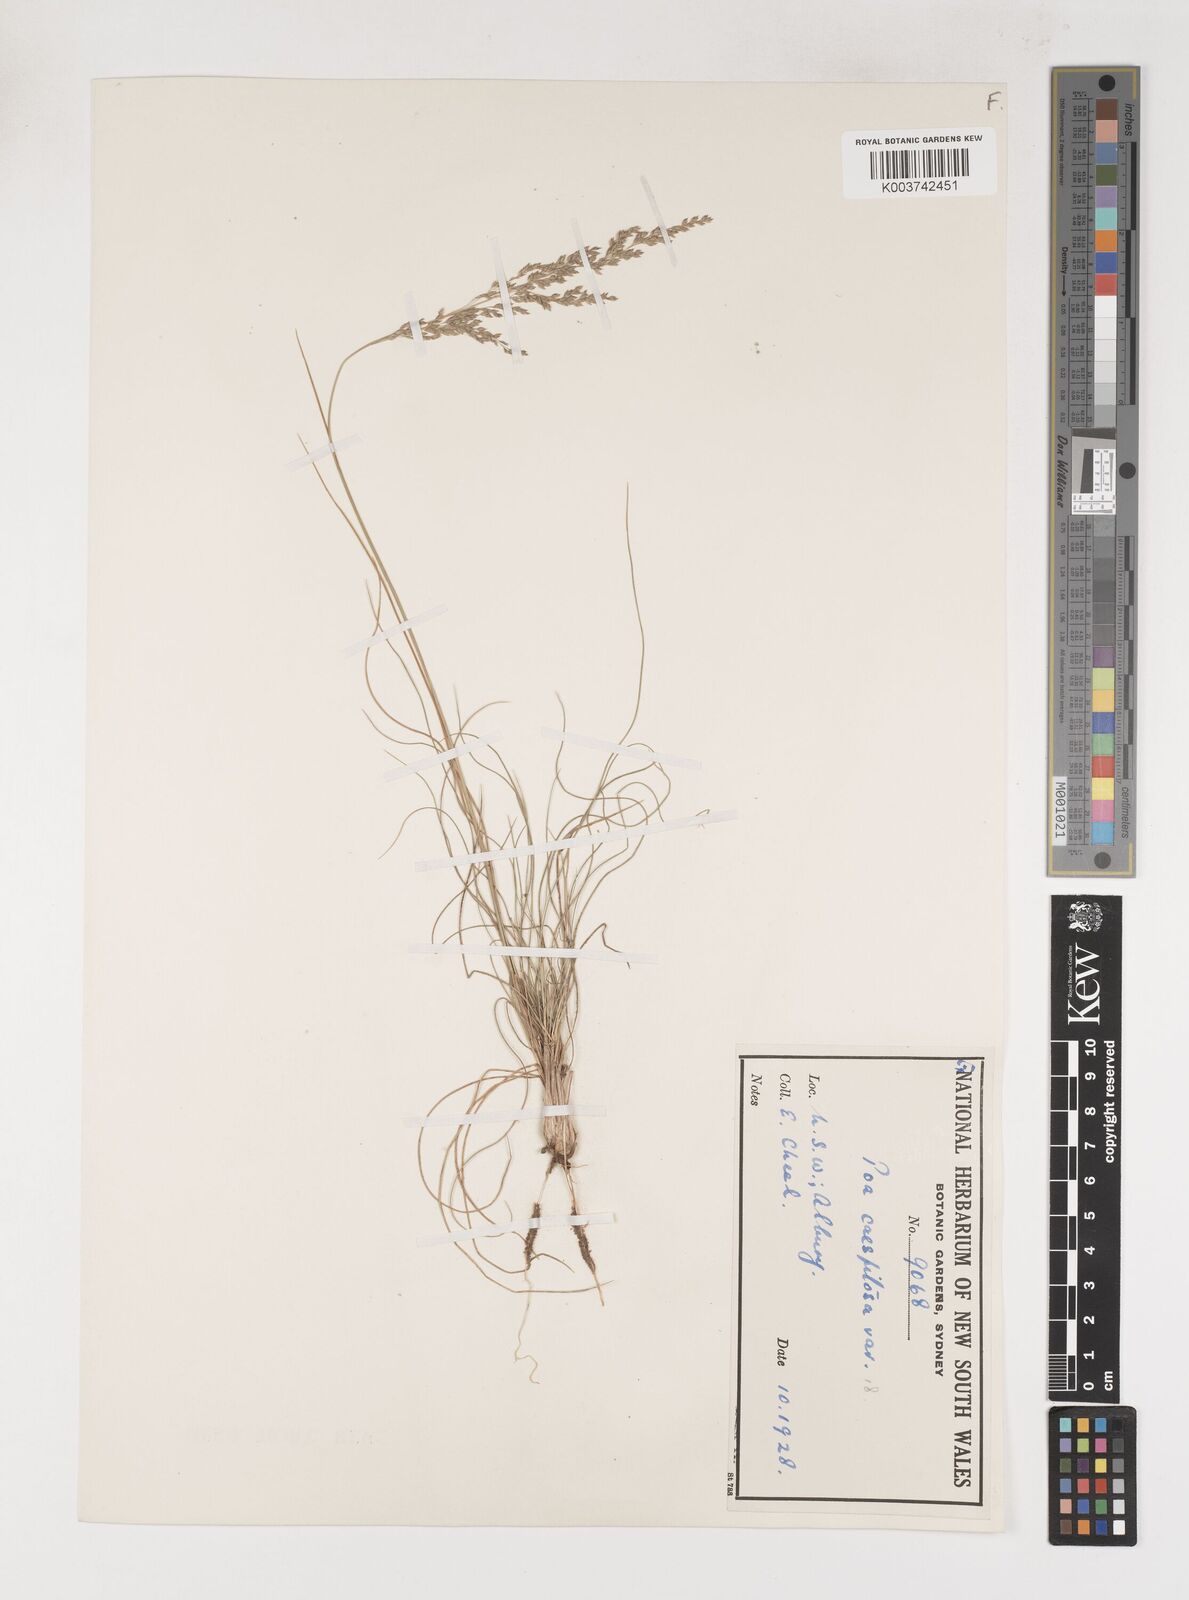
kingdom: Plantae
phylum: Tracheophyta
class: Liliopsida
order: Poales
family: Poaceae
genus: Poa
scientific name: Poa
